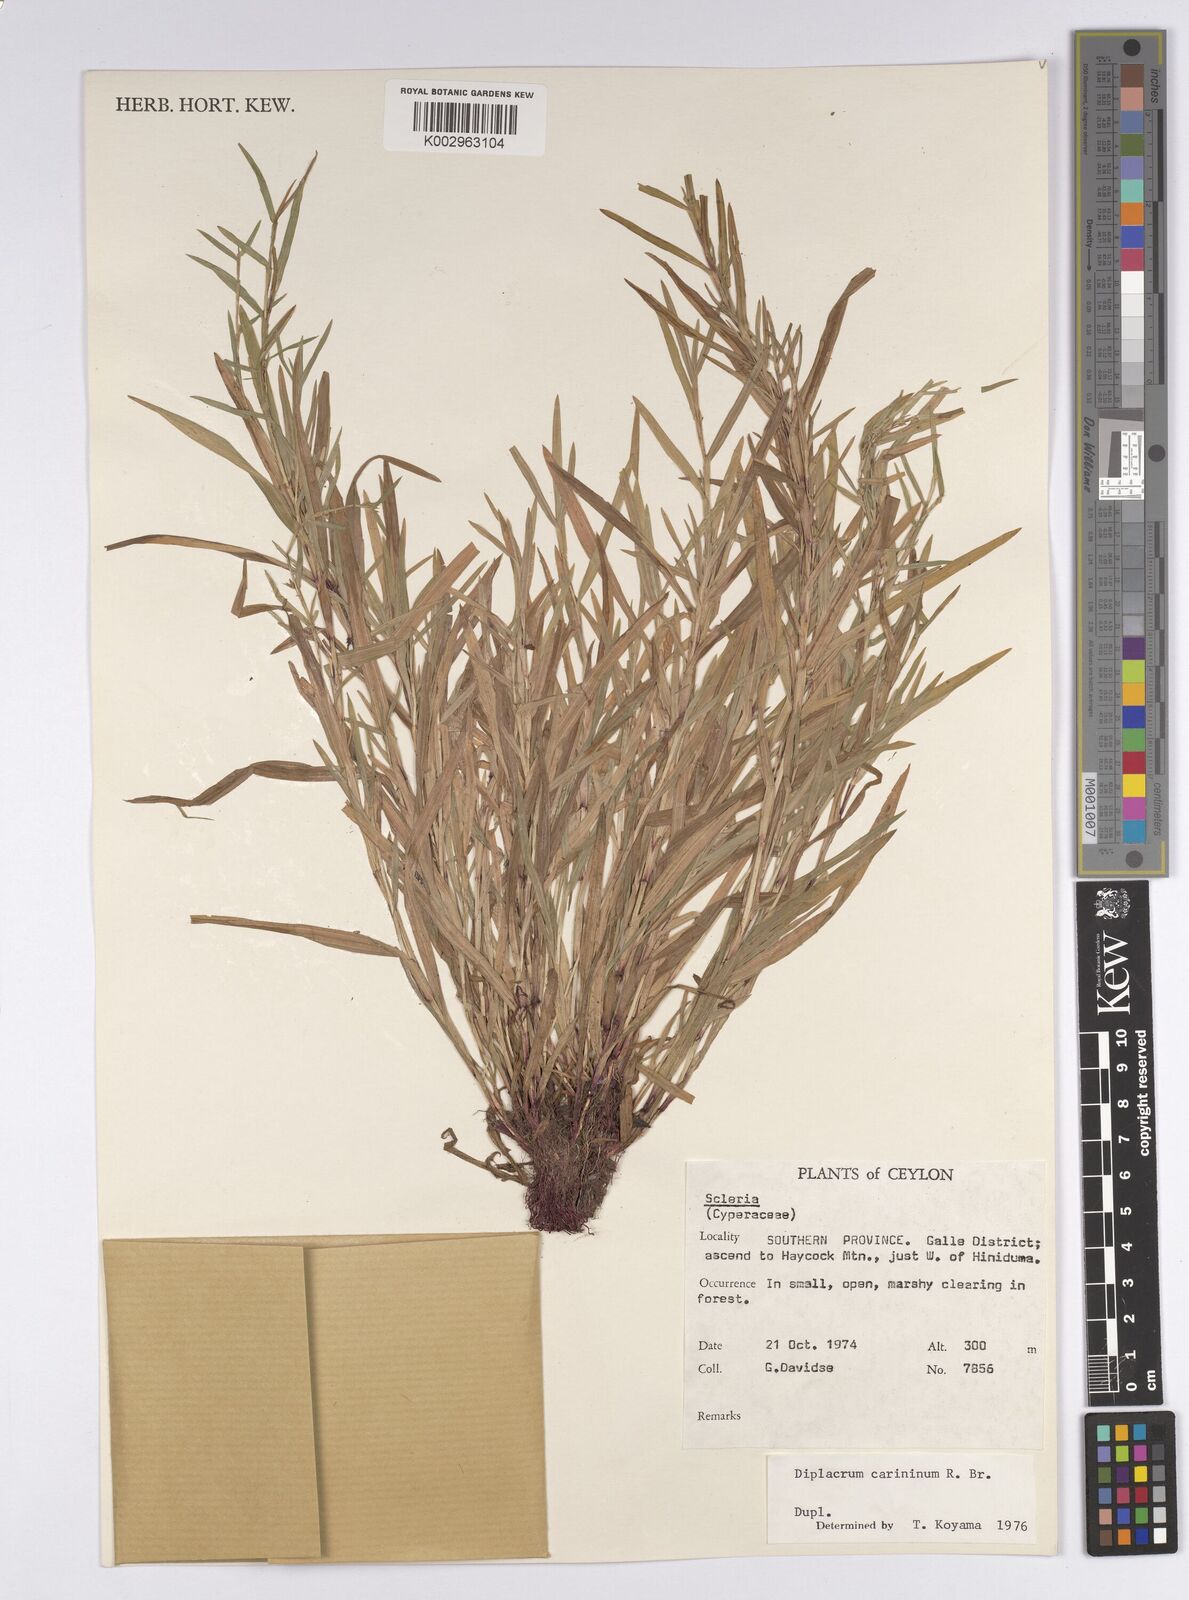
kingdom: Plantae
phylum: Tracheophyta
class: Liliopsida
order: Poales
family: Cyperaceae
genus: Diplacrum
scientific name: Diplacrum caricinum
